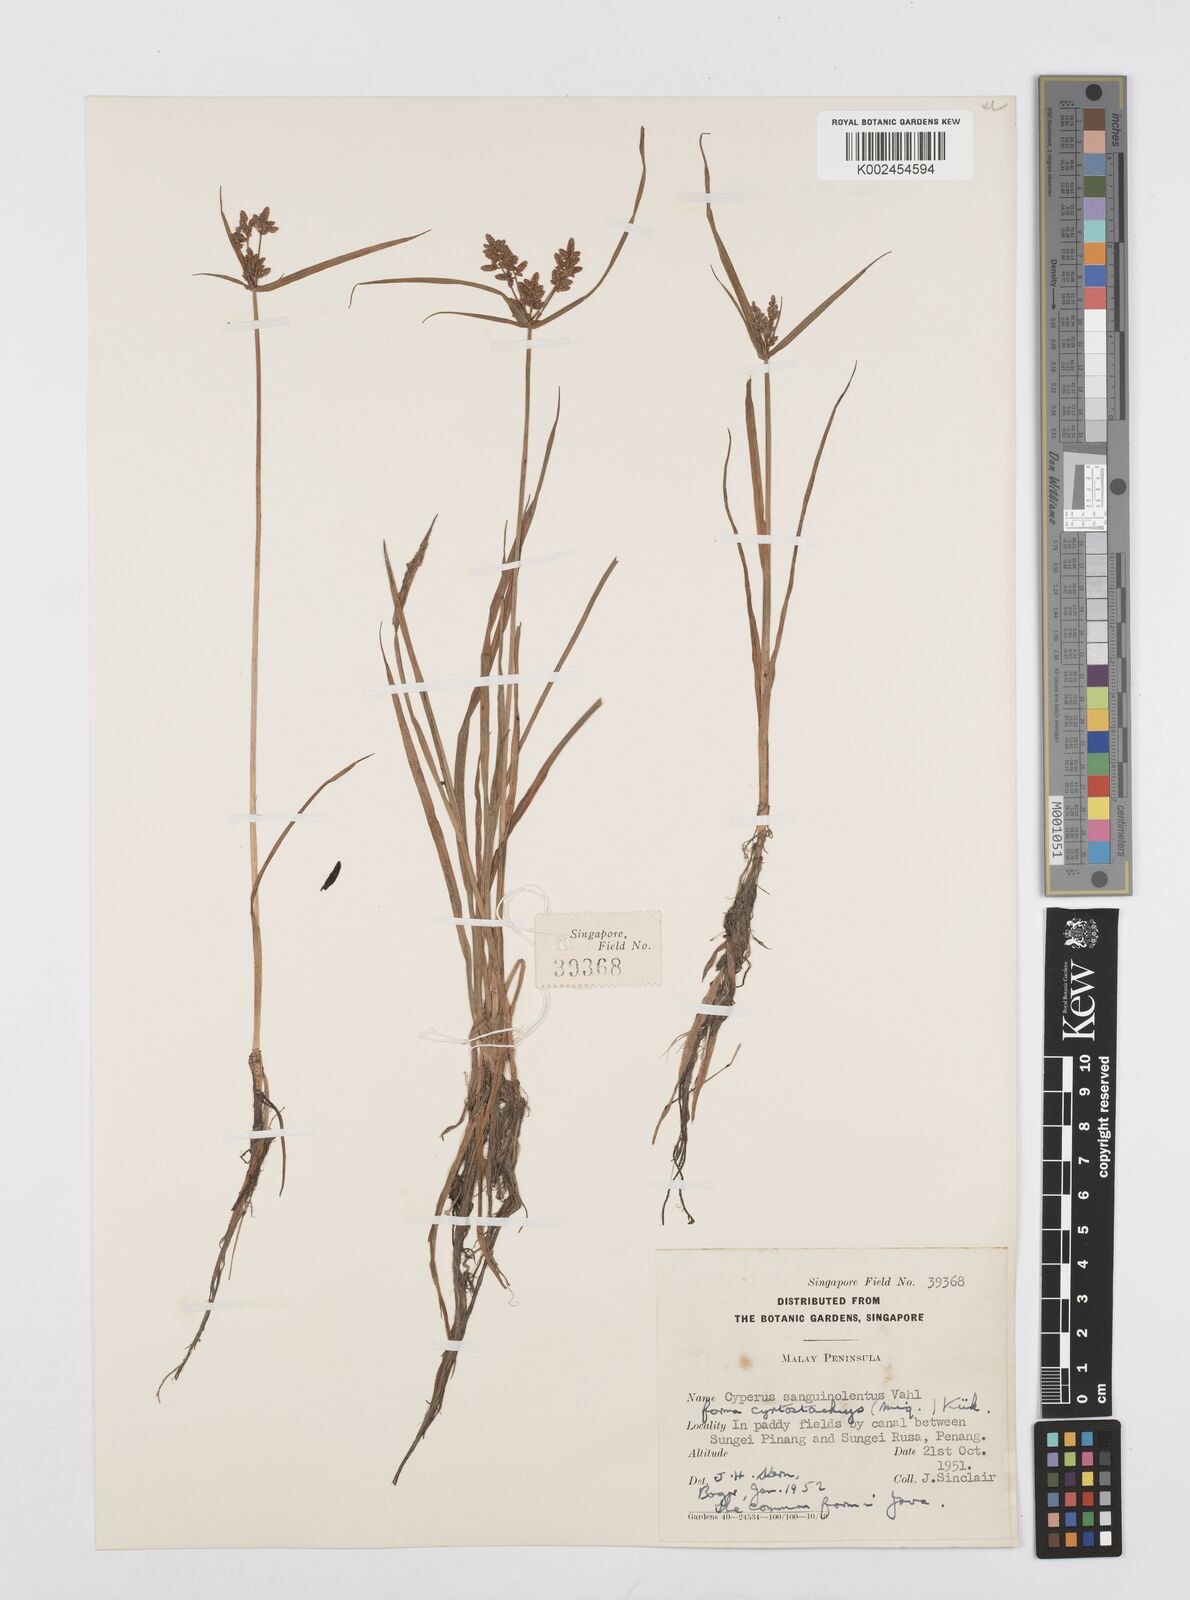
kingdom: Plantae
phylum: Tracheophyta
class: Liliopsida
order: Poales
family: Cyperaceae
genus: Cyperus
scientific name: Cyperus sanguinolentus
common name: Purpleglume flatsedge
